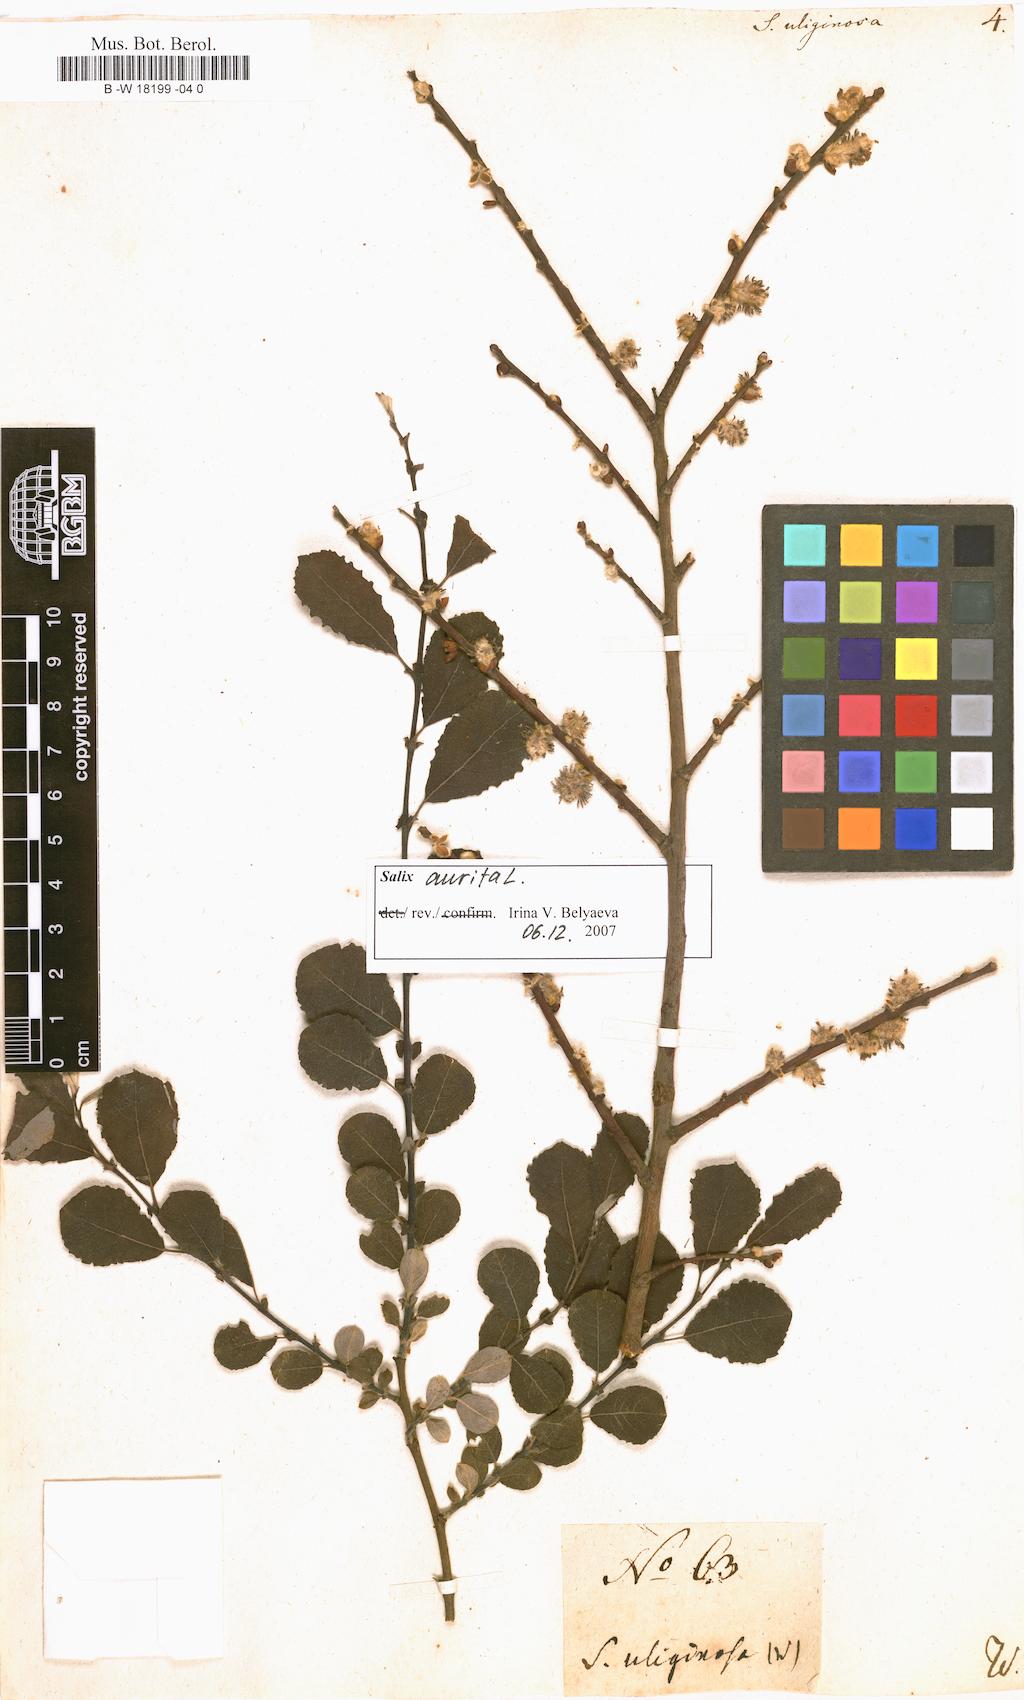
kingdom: Plantae
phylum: Tracheophyta
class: Magnoliopsida
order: Malpighiales
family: Salicaceae
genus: Salix
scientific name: Salix
